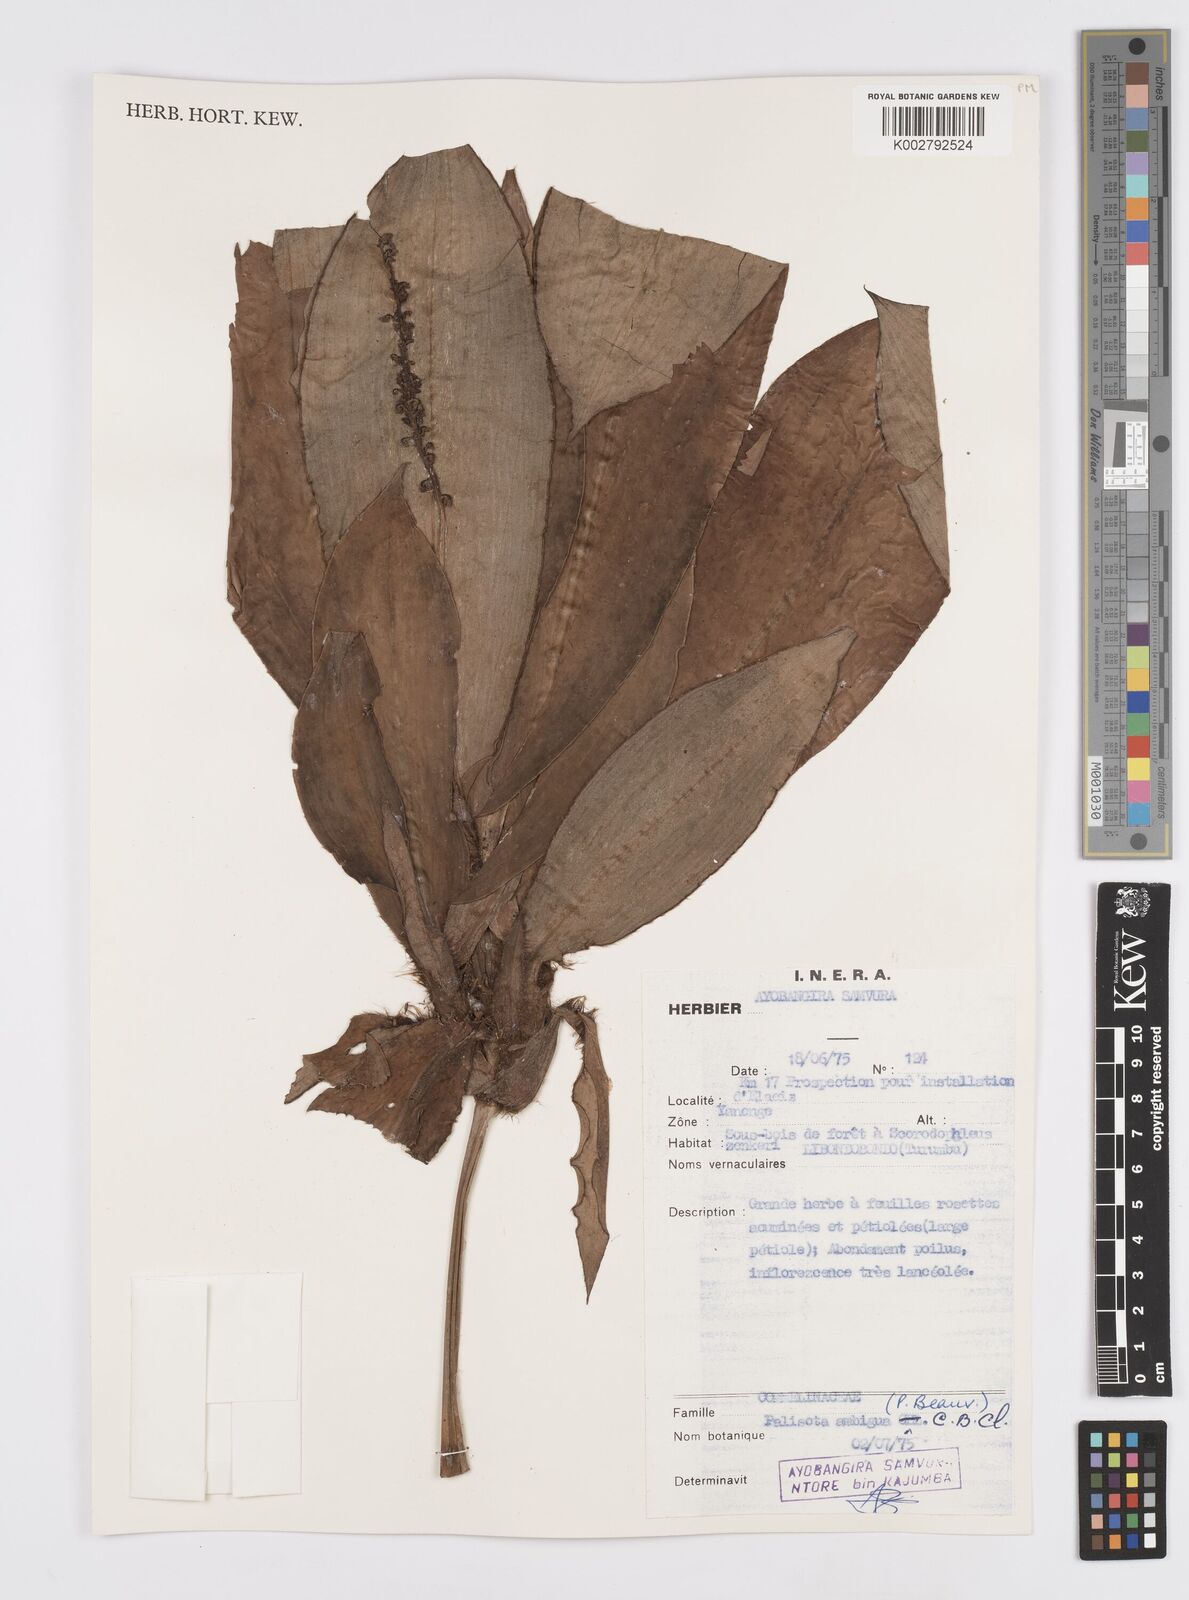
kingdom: Plantae
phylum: Tracheophyta
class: Liliopsida
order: Commelinales
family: Commelinaceae
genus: Palisota
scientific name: Palisota ambigua
